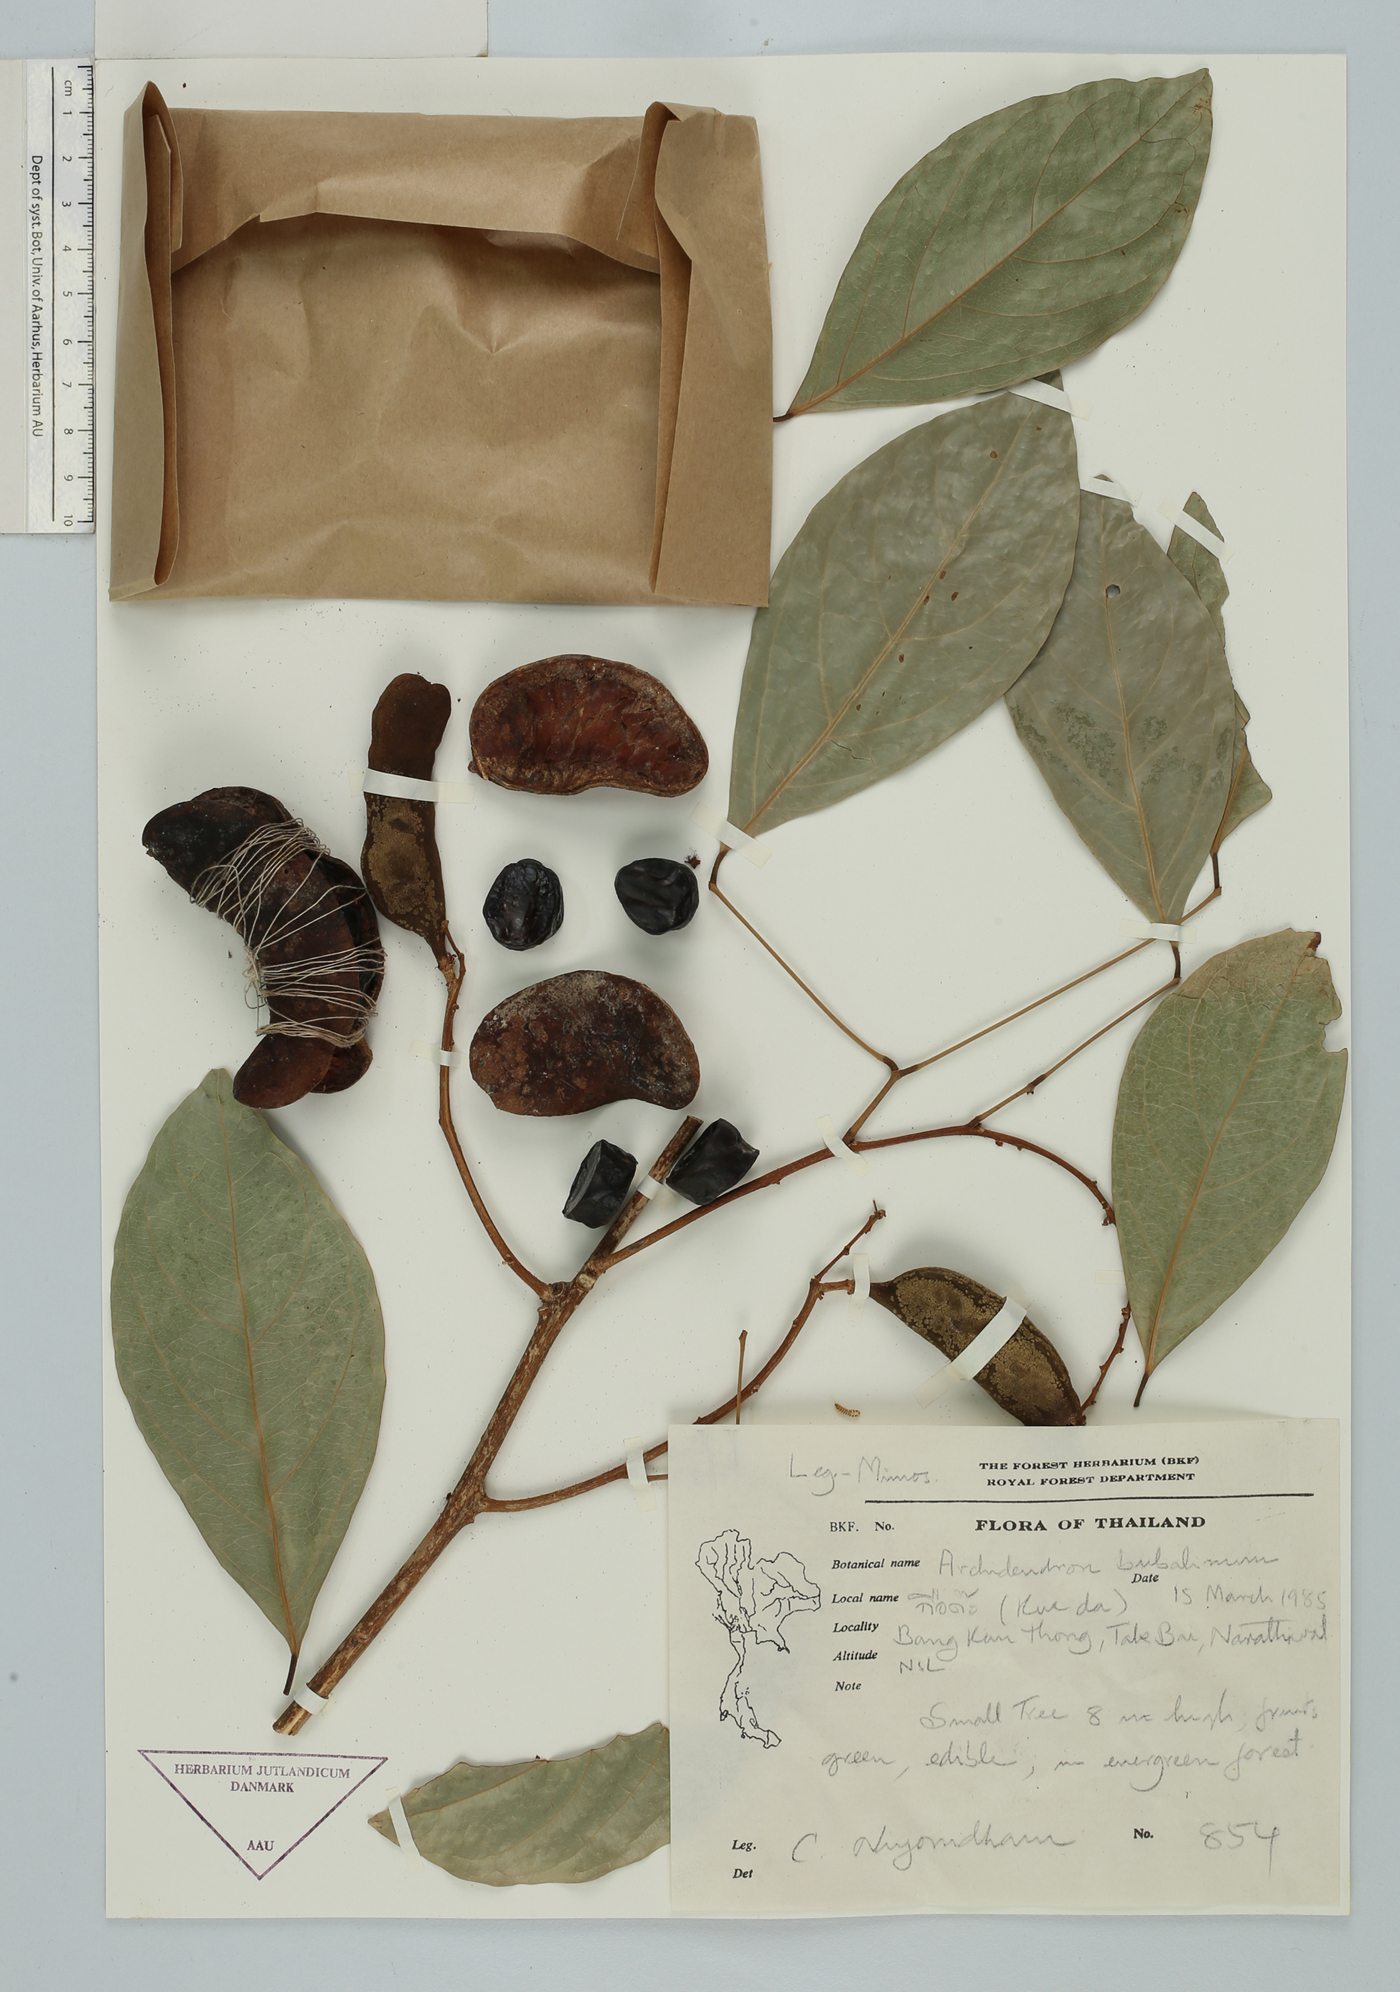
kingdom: Plantae
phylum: Tracheophyta
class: Magnoliopsida
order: Fabales
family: Fabaceae
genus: Archidendron
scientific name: Archidendron bubalinum
